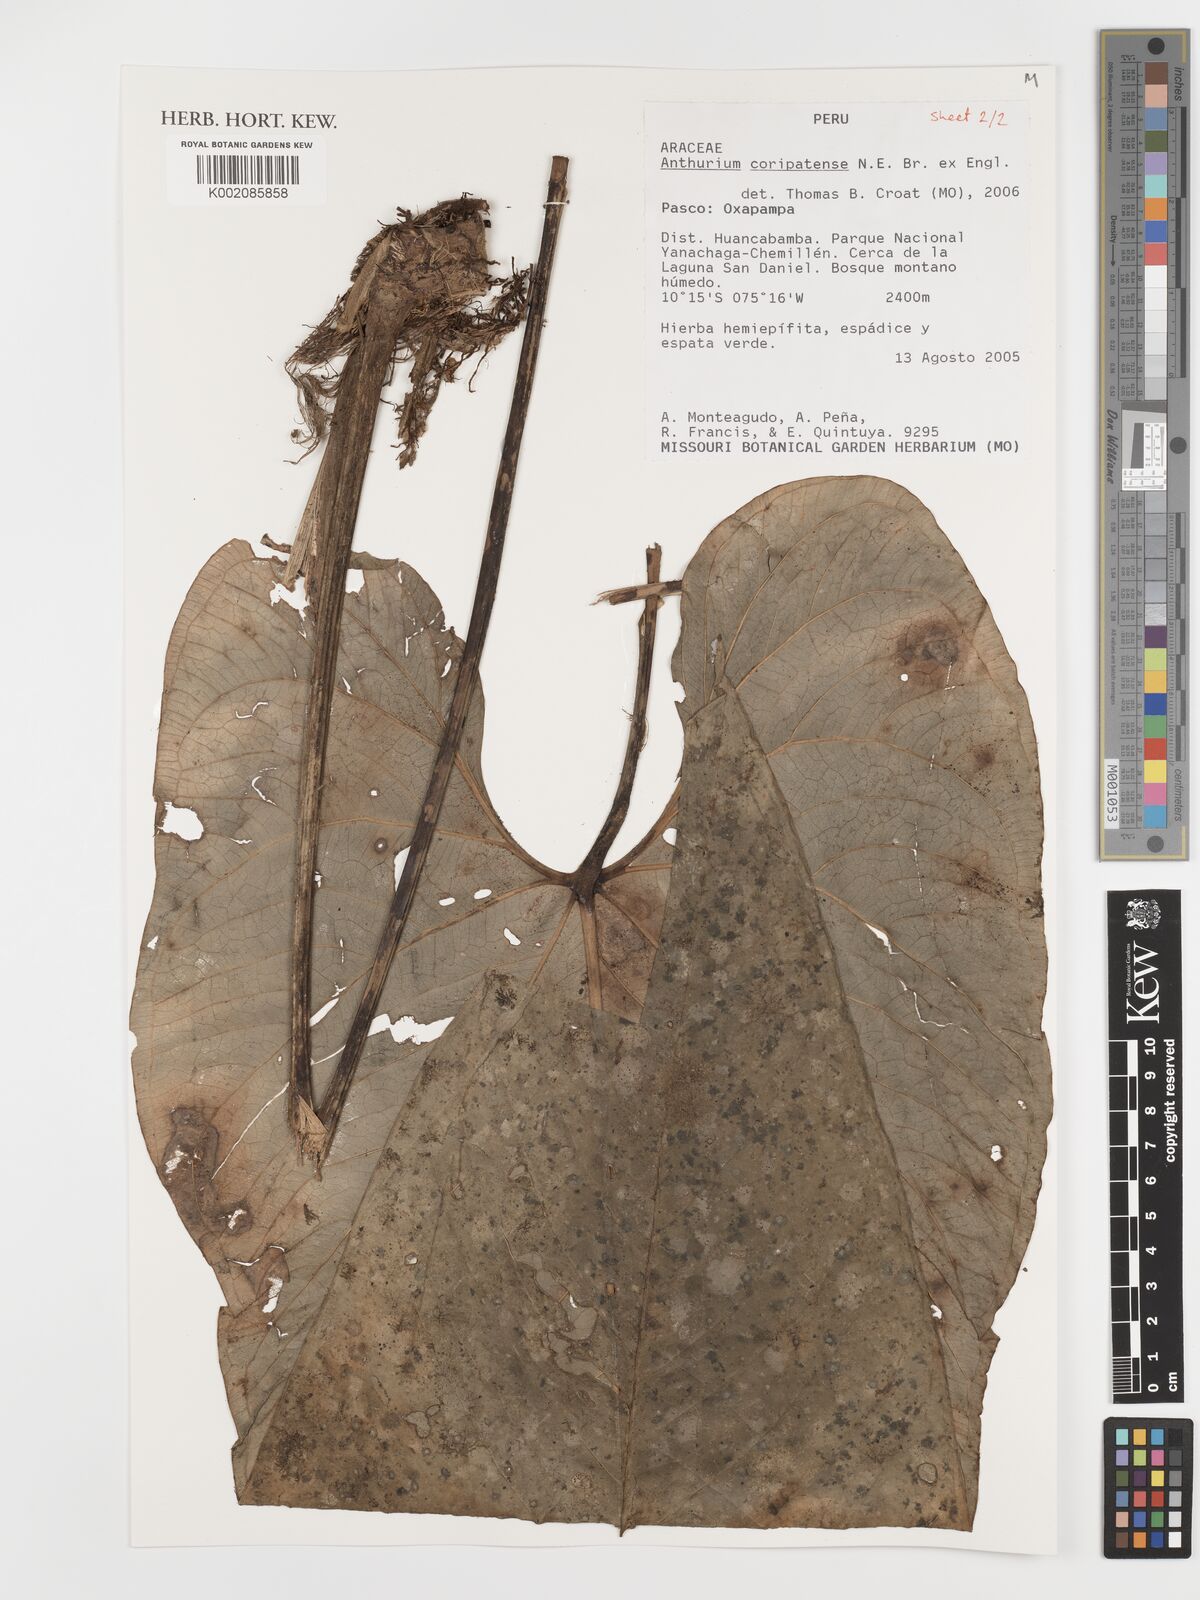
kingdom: Plantae
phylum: Tracheophyta
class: Liliopsida
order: Alismatales
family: Araceae
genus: Anthurium
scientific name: Anthurium coripatense
